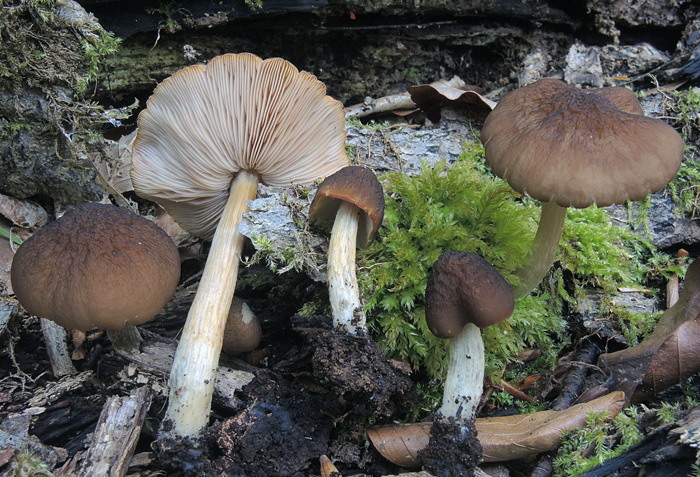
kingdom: Fungi
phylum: Basidiomycota
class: Agaricomycetes
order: Agaricales
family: Pluteaceae
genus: Pluteus
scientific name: Pluteus phlebophorus
